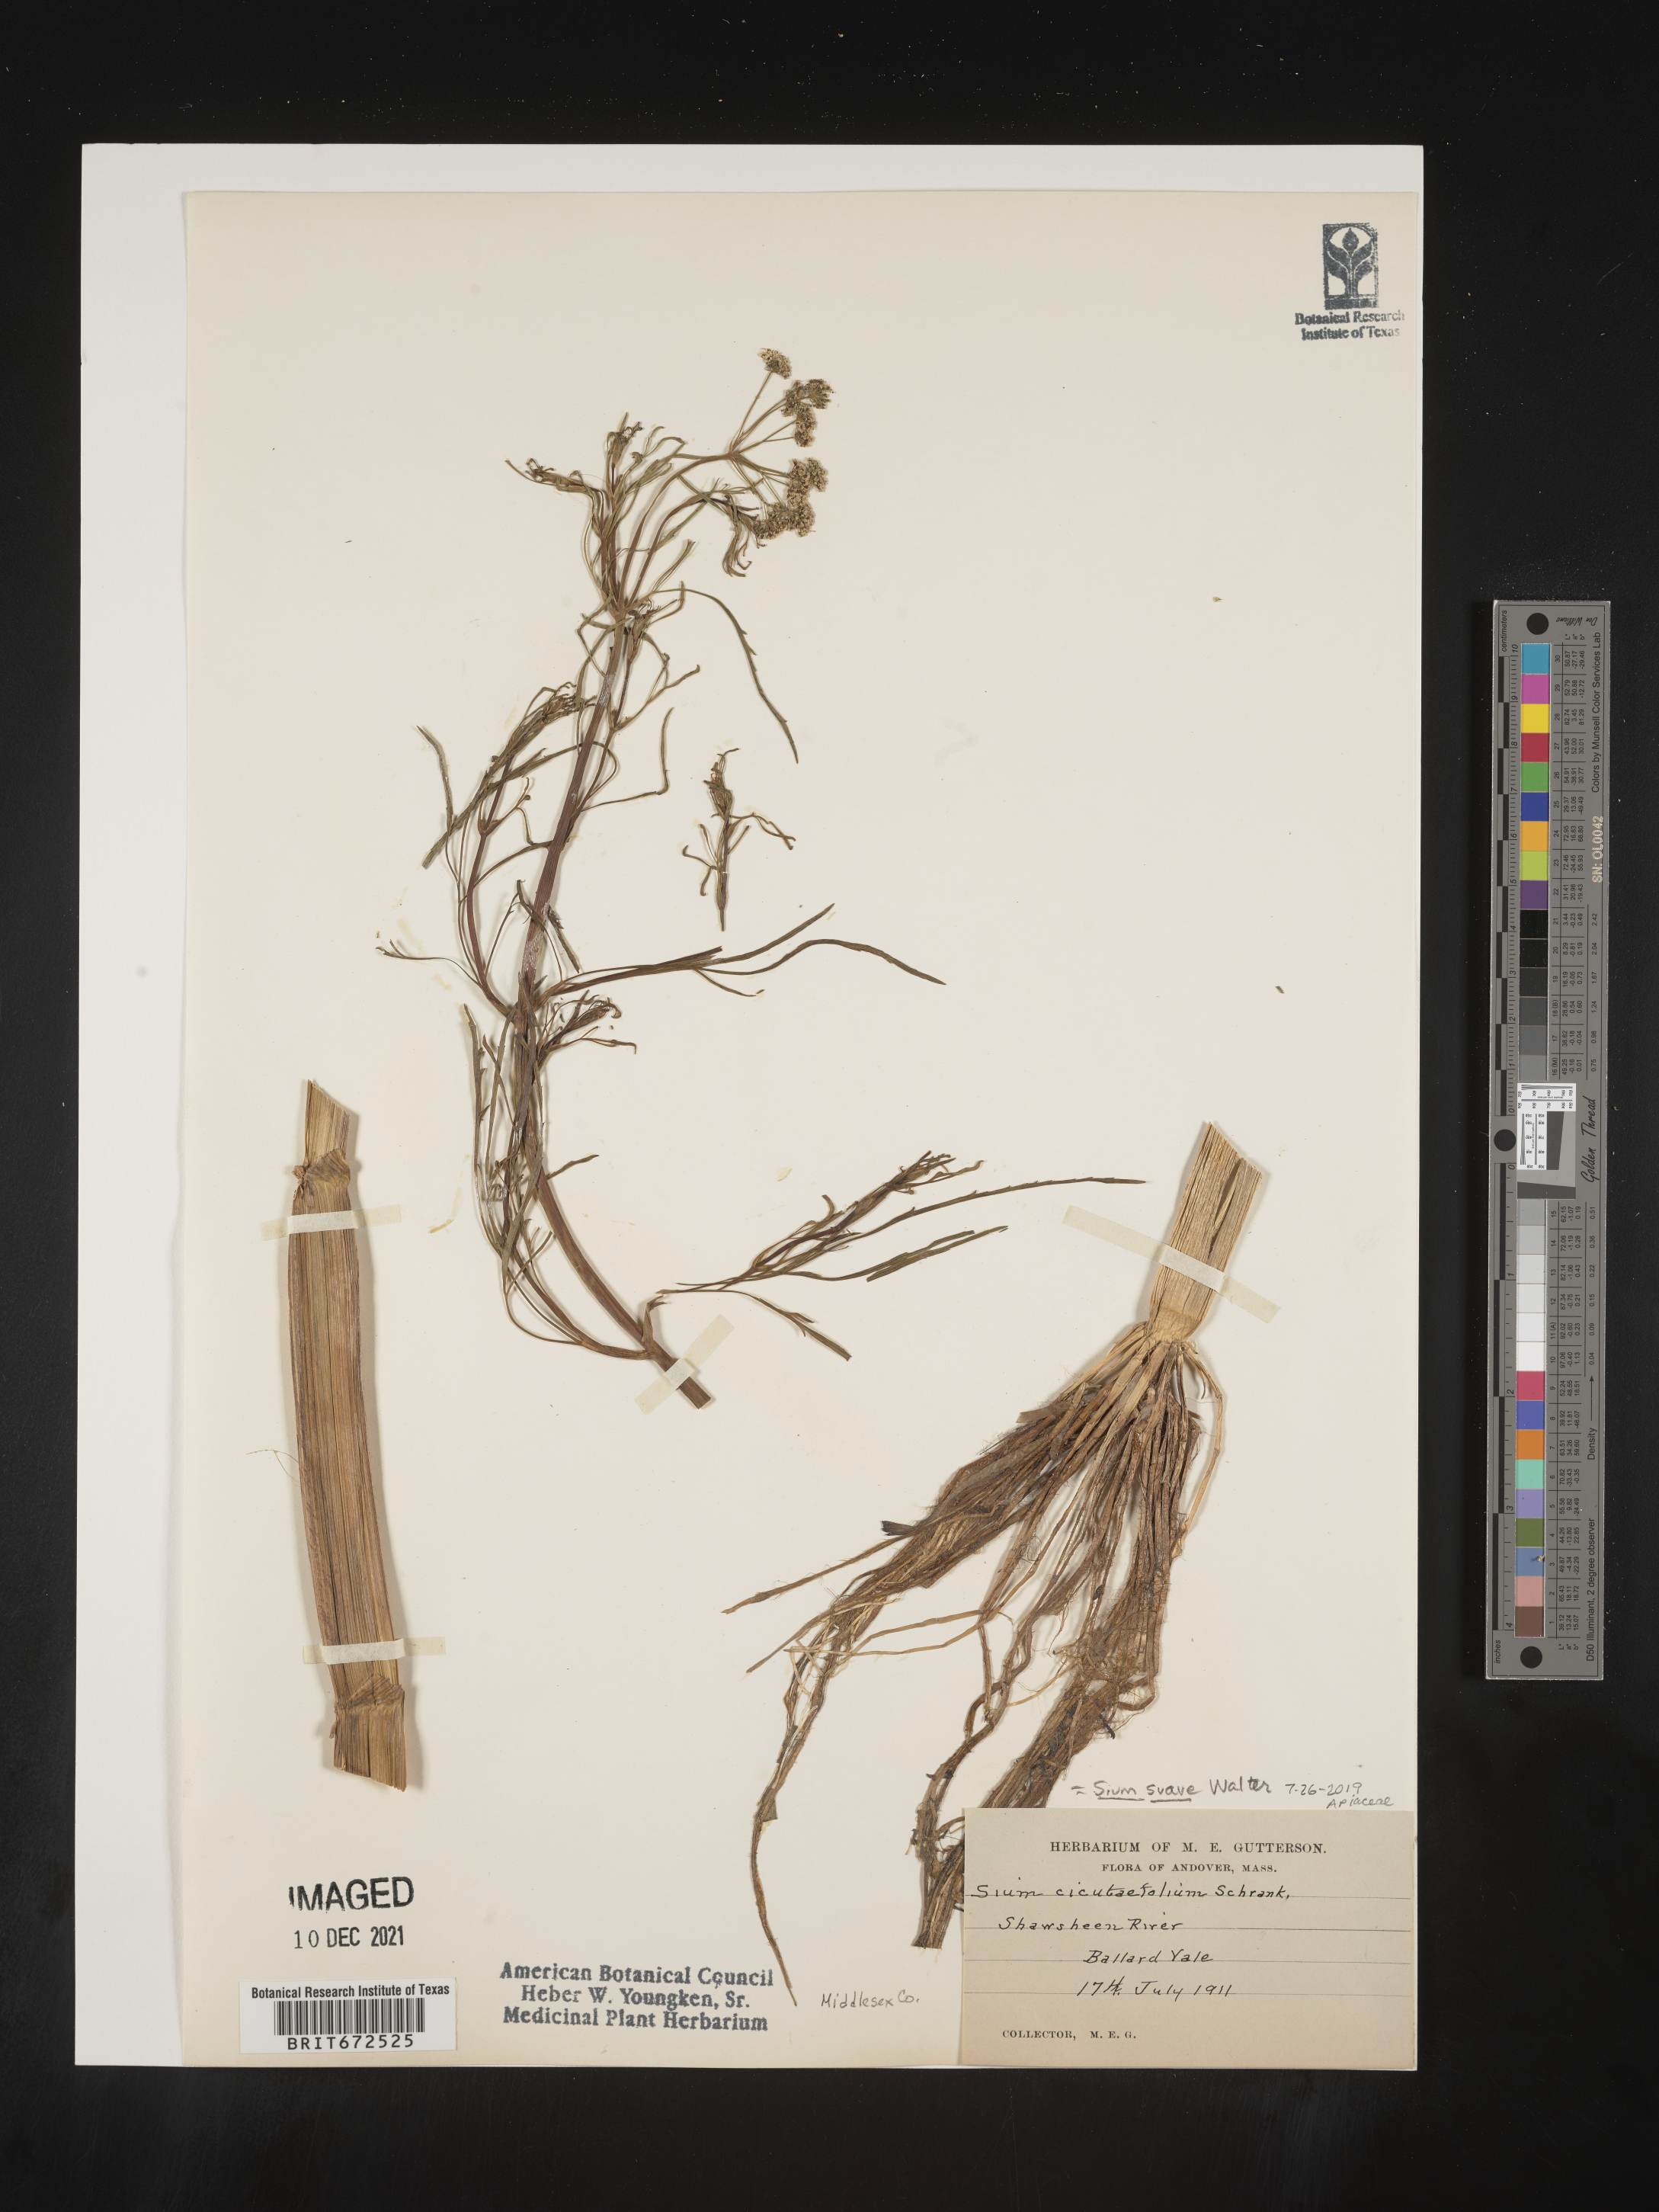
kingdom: Plantae
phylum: Tracheophyta
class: Magnoliopsida
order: Apiales
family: Apiaceae
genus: Sium
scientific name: Sium suave
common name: Hemlock water-parsnip
